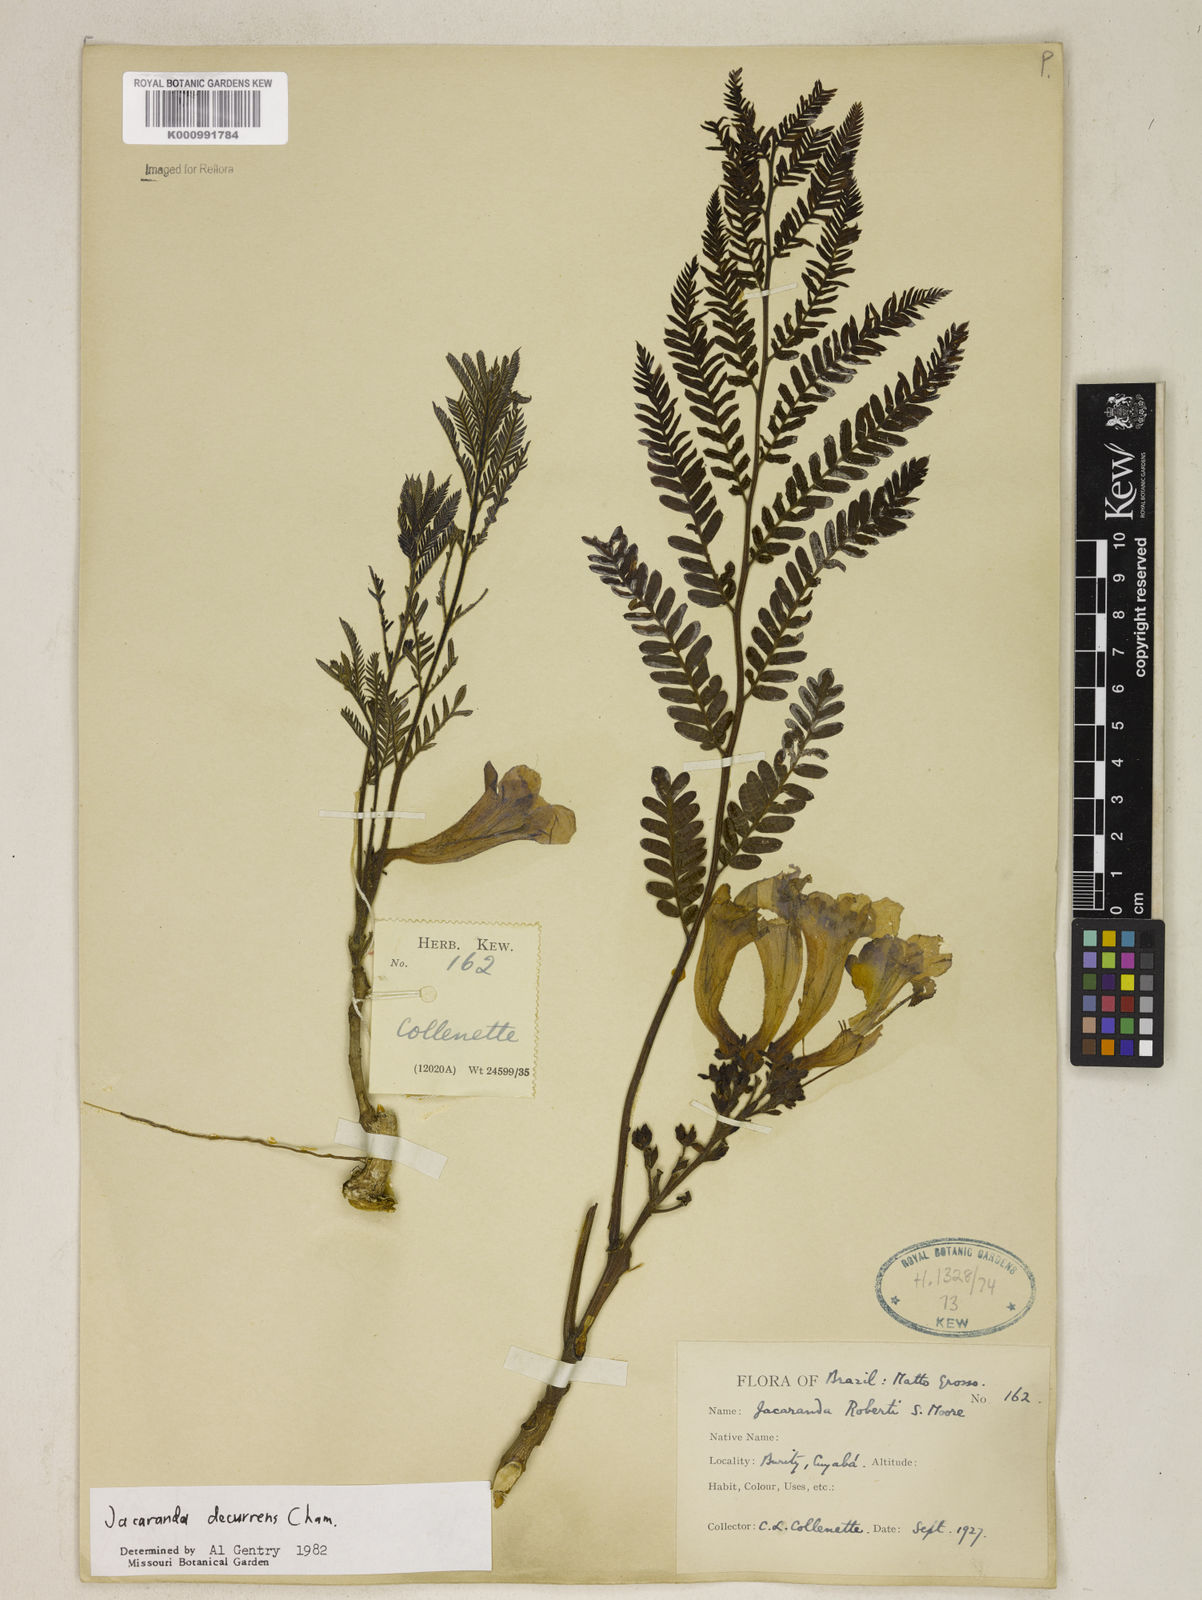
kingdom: Plantae
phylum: Tracheophyta
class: Magnoliopsida
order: Lamiales
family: Bignoniaceae
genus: Jacaranda
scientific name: Jacaranda decurrens
